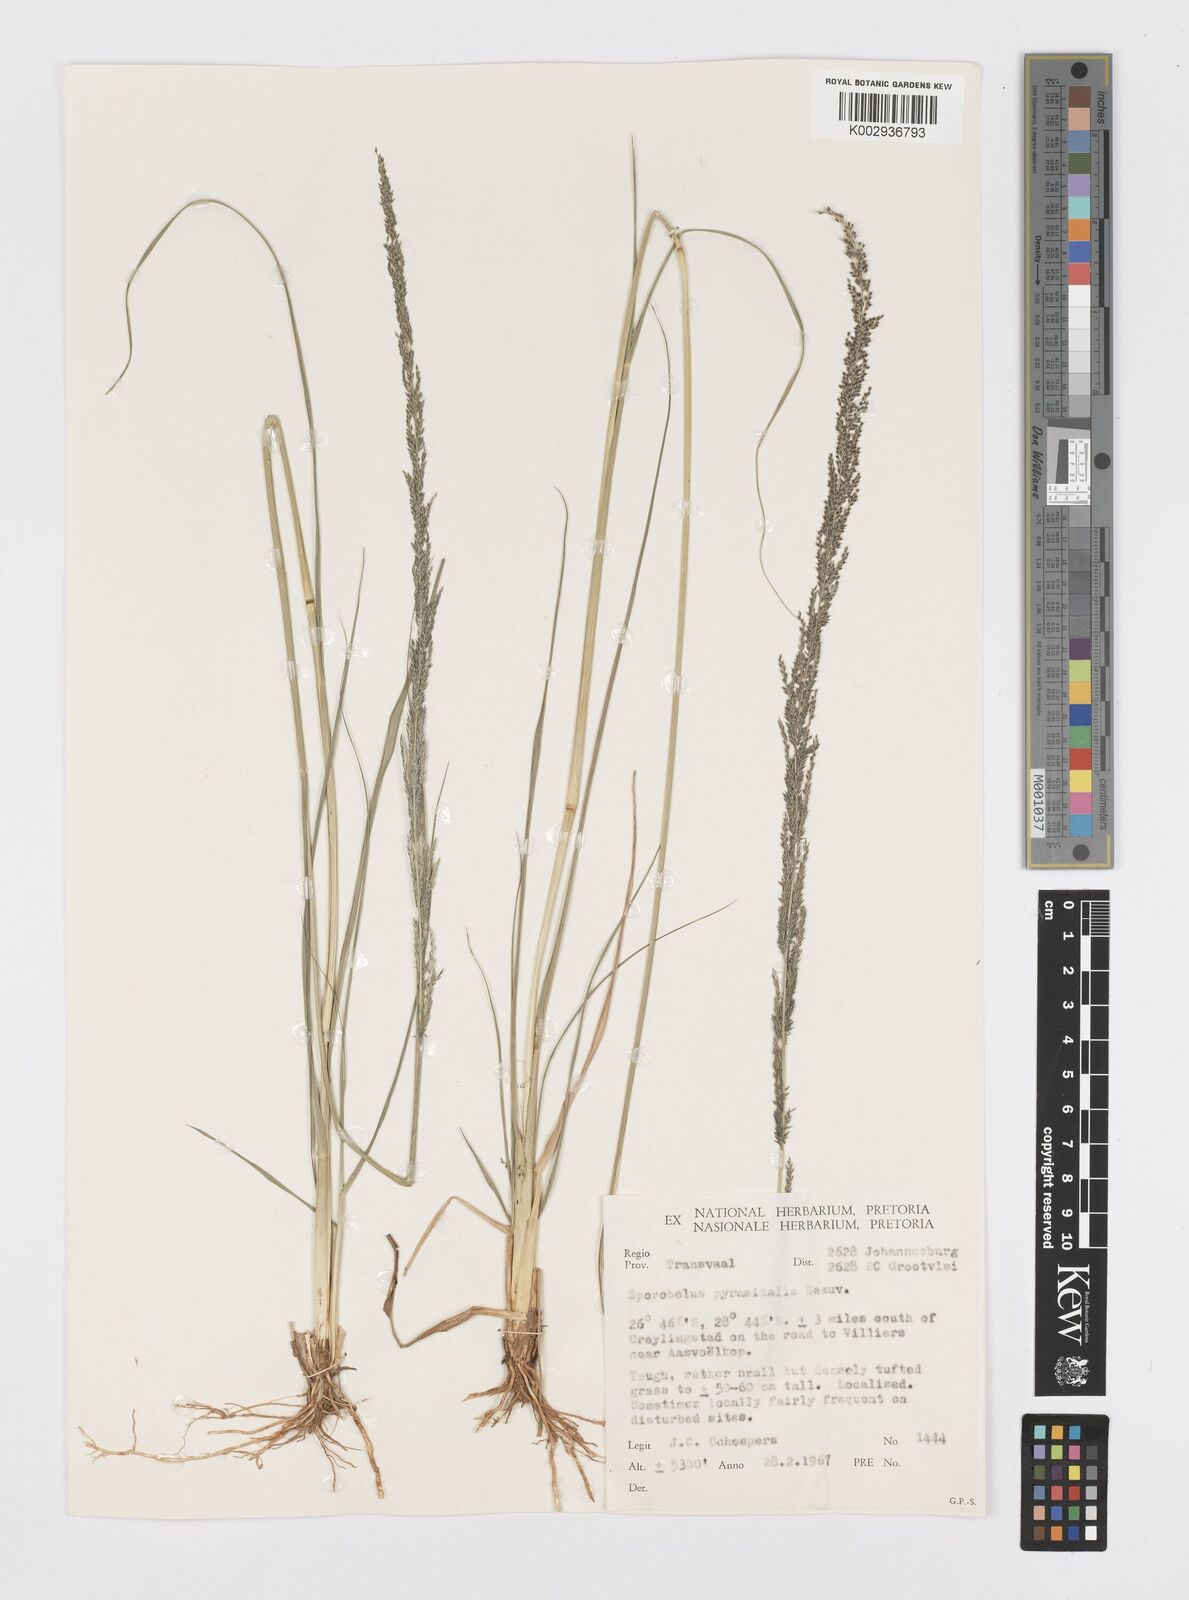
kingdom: Plantae
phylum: Tracheophyta
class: Liliopsida
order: Poales
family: Poaceae
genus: Sporobolus
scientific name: Sporobolus pyramidalis
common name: West indian dropseed
